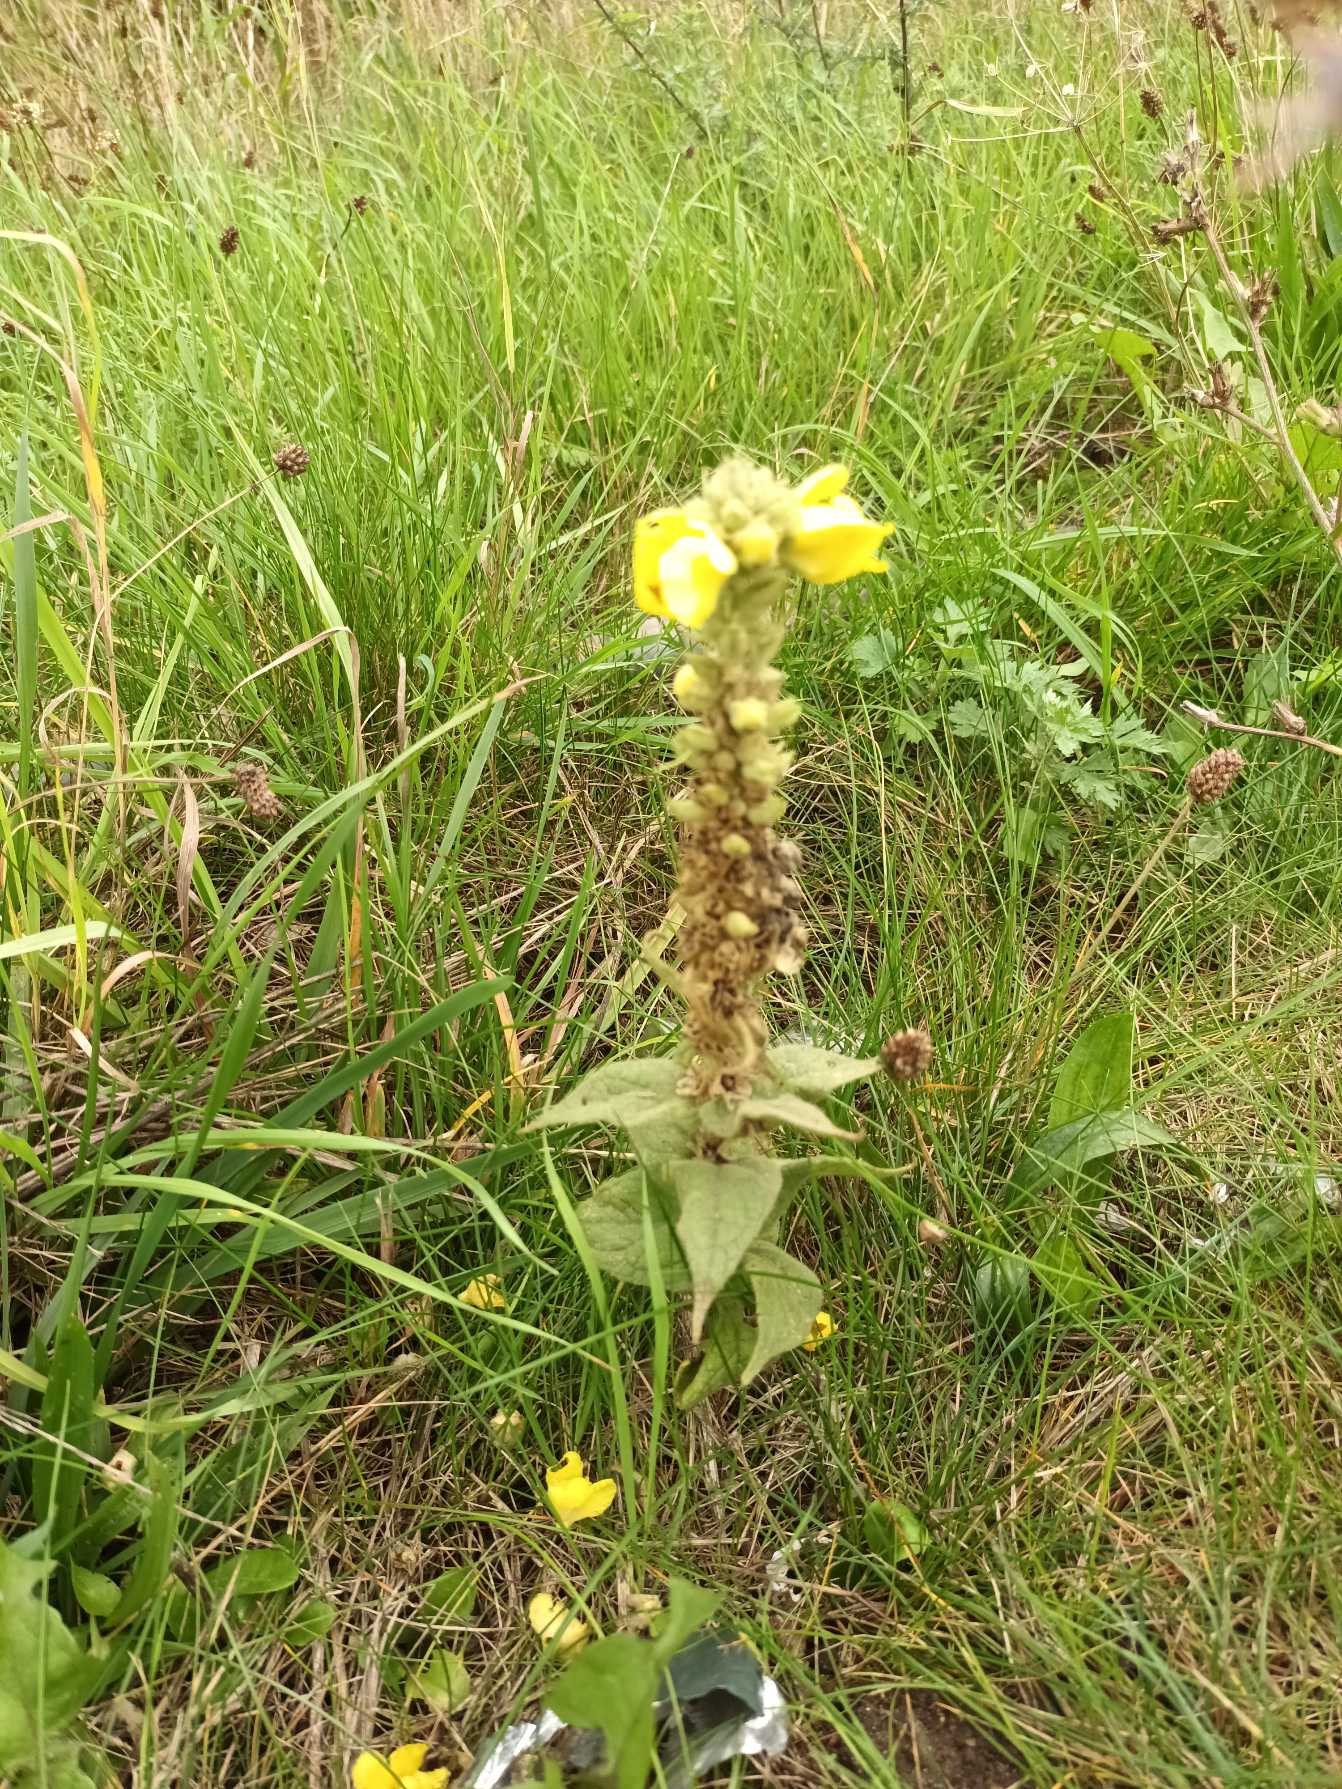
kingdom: Plantae
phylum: Tracheophyta
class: Magnoliopsida
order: Lamiales
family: Scrophulariaceae
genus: Verbascum
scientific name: Verbascum densiflorum
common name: Uldbladet kongelys
